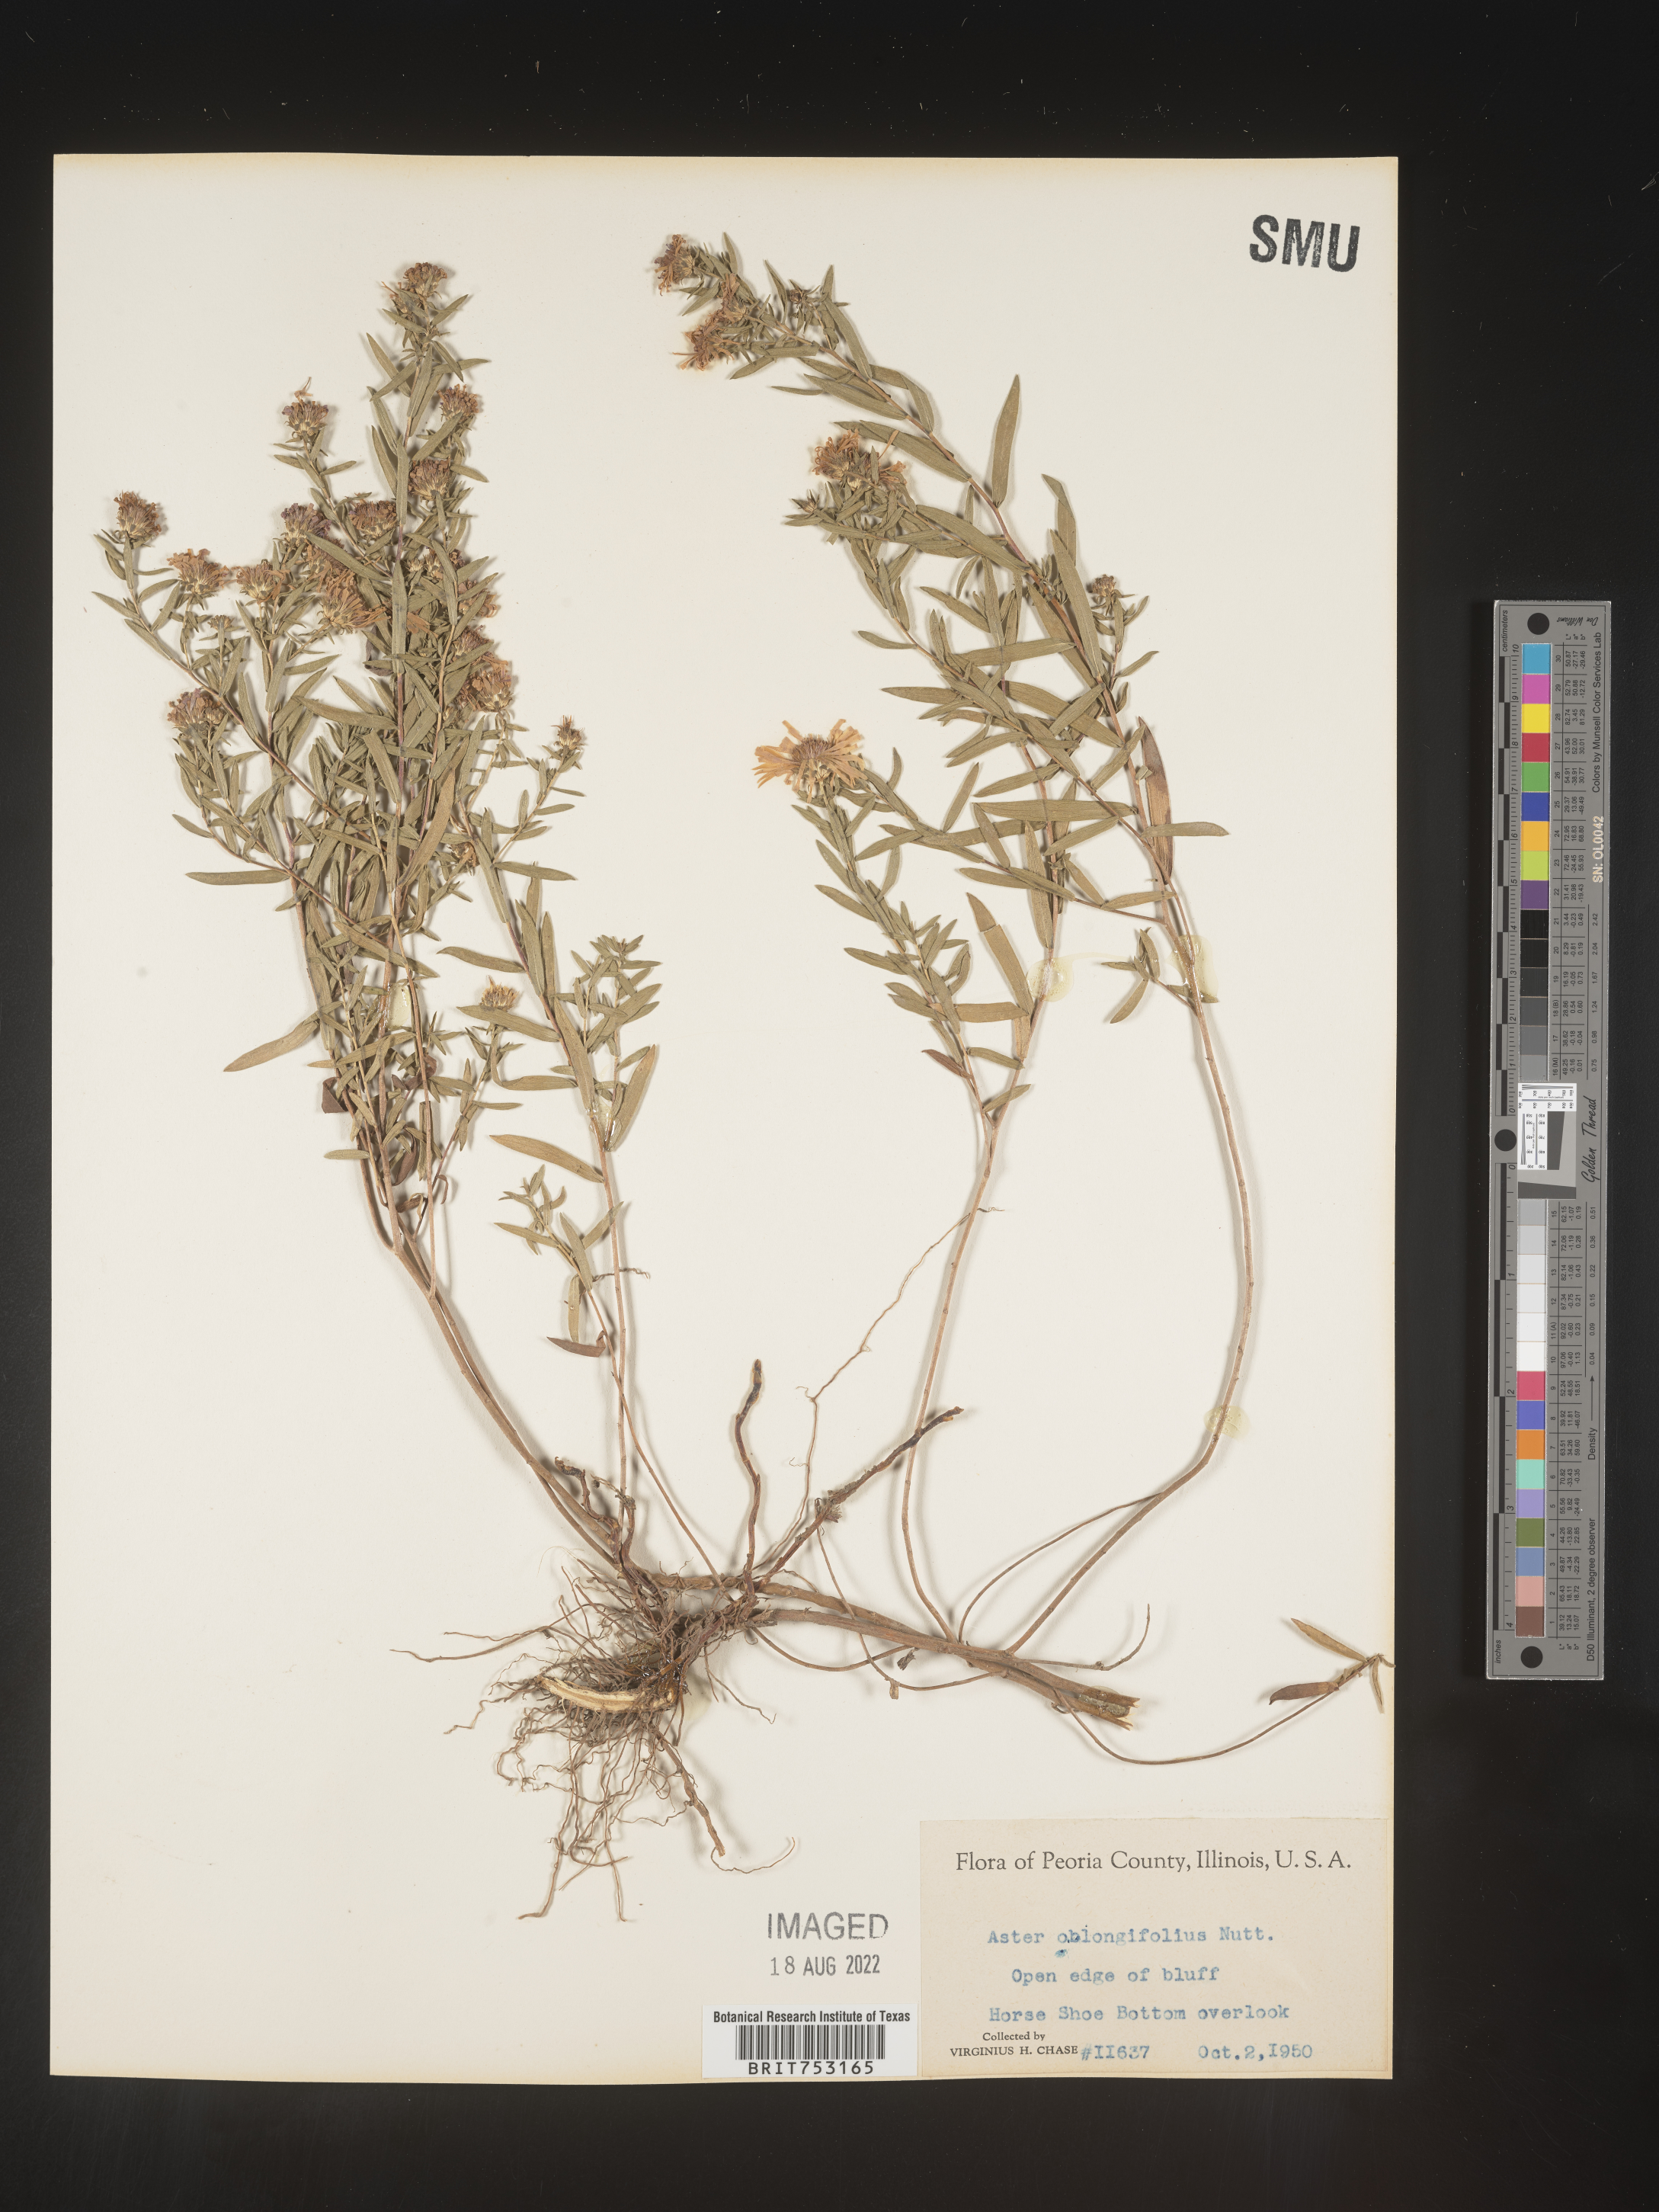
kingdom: Plantae
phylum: Tracheophyta
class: Magnoliopsida
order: Asterales
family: Asteraceae
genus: Symphyotrichum
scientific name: Symphyotrichum oblongifolium
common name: Aromatic aster
